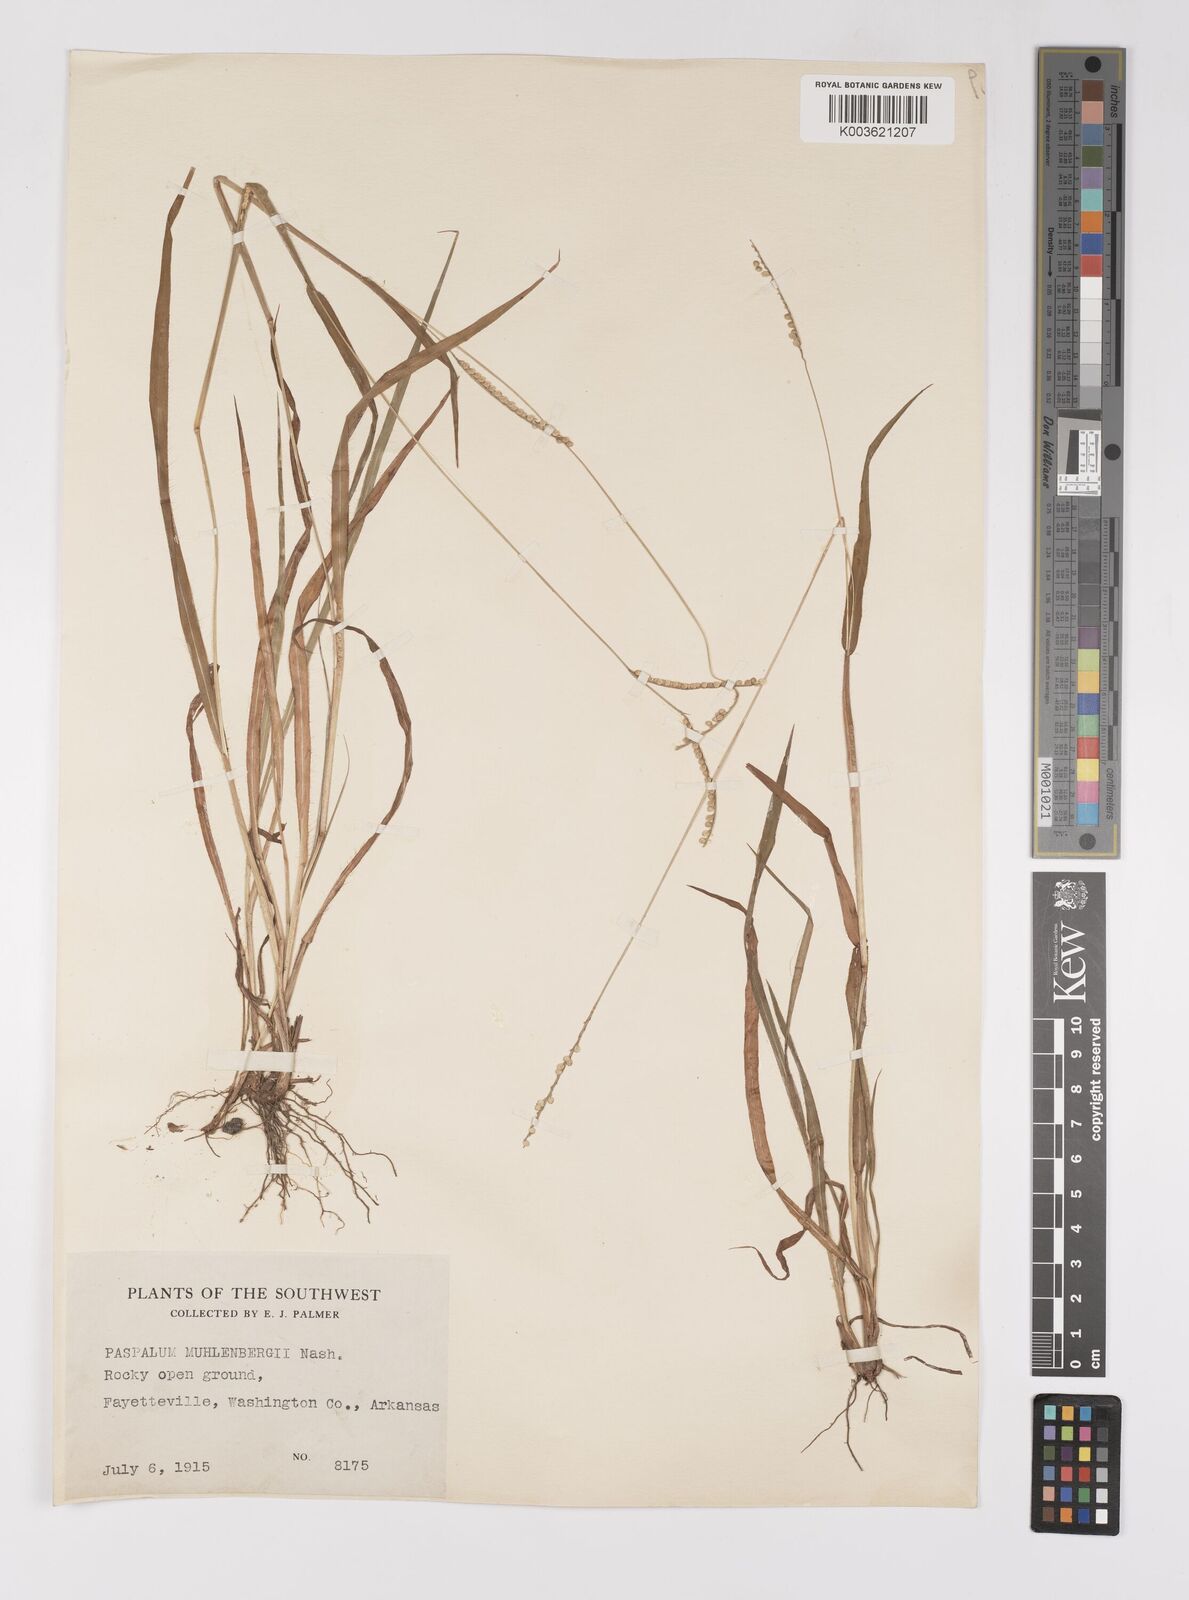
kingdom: Plantae
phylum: Tracheophyta
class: Liliopsida
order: Poales
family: Poaceae
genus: Paspalum
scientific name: Paspalum setaceum
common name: Slender paspalum
